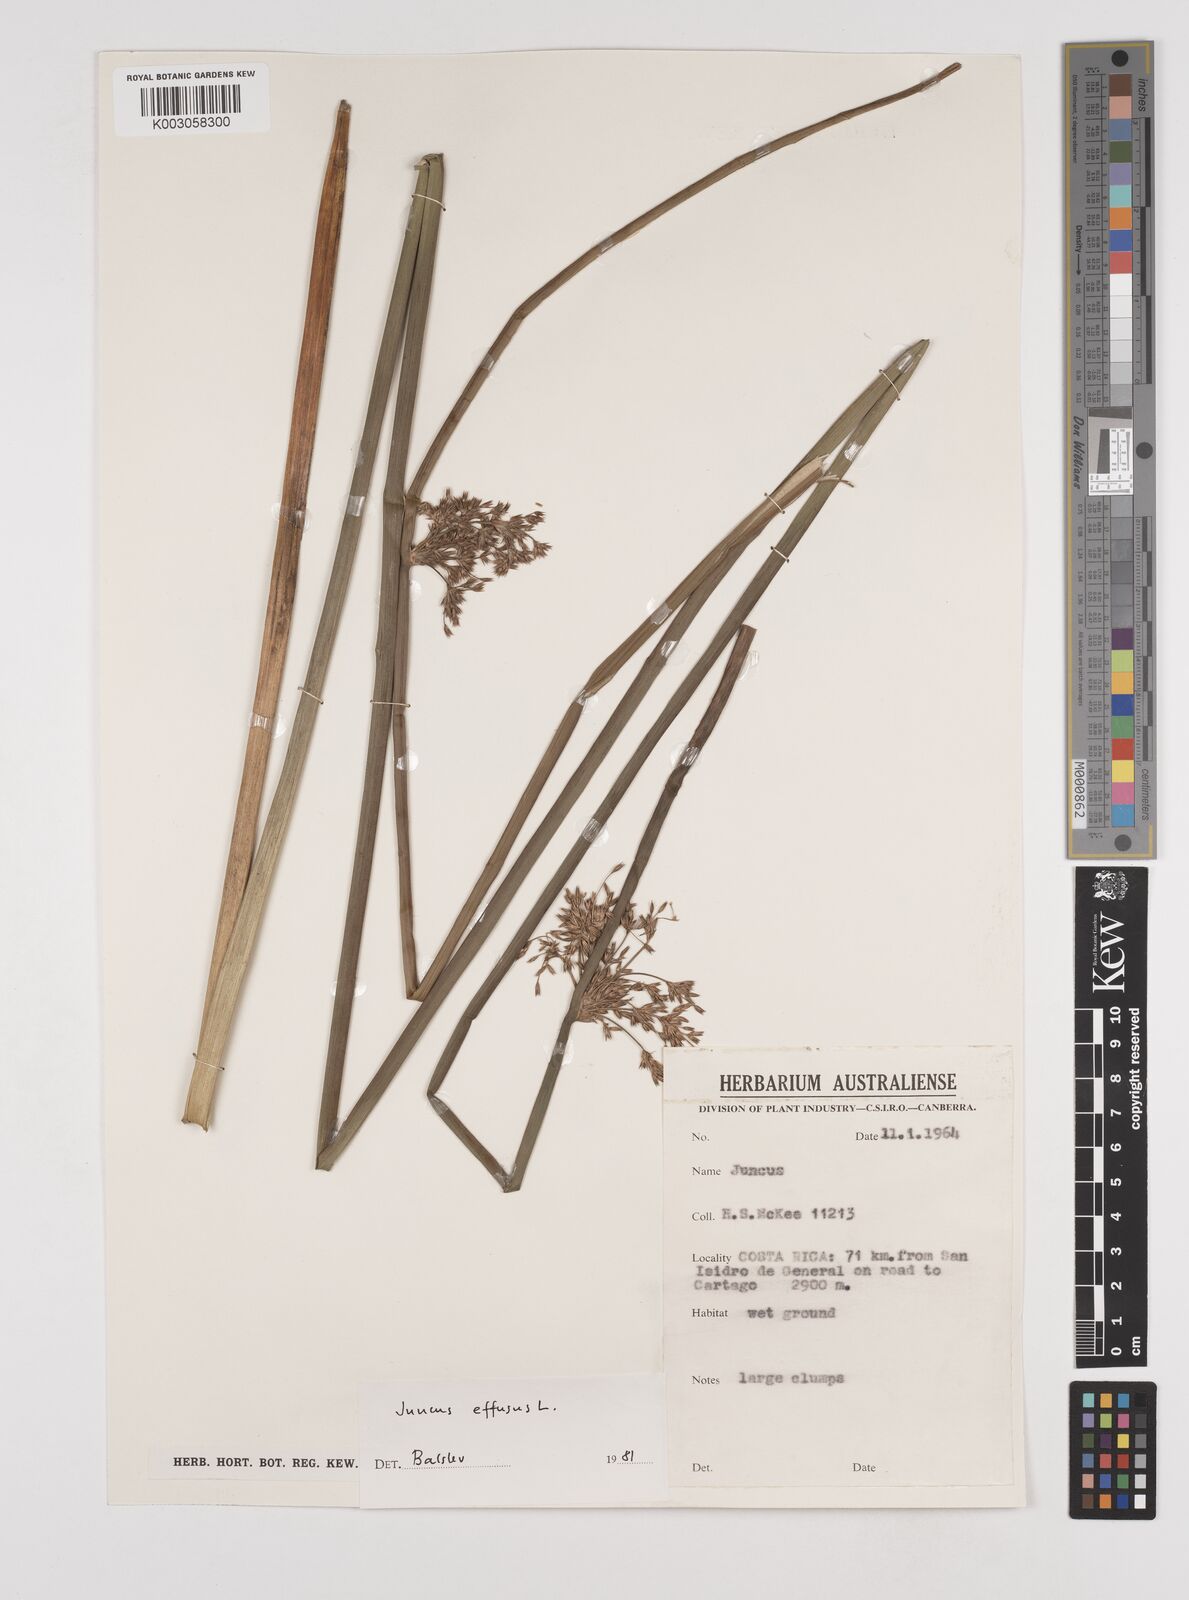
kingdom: Plantae
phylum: Tracheophyta
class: Liliopsida
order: Poales
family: Juncaceae
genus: Juncus
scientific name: Juncus effusus
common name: Soft rush
